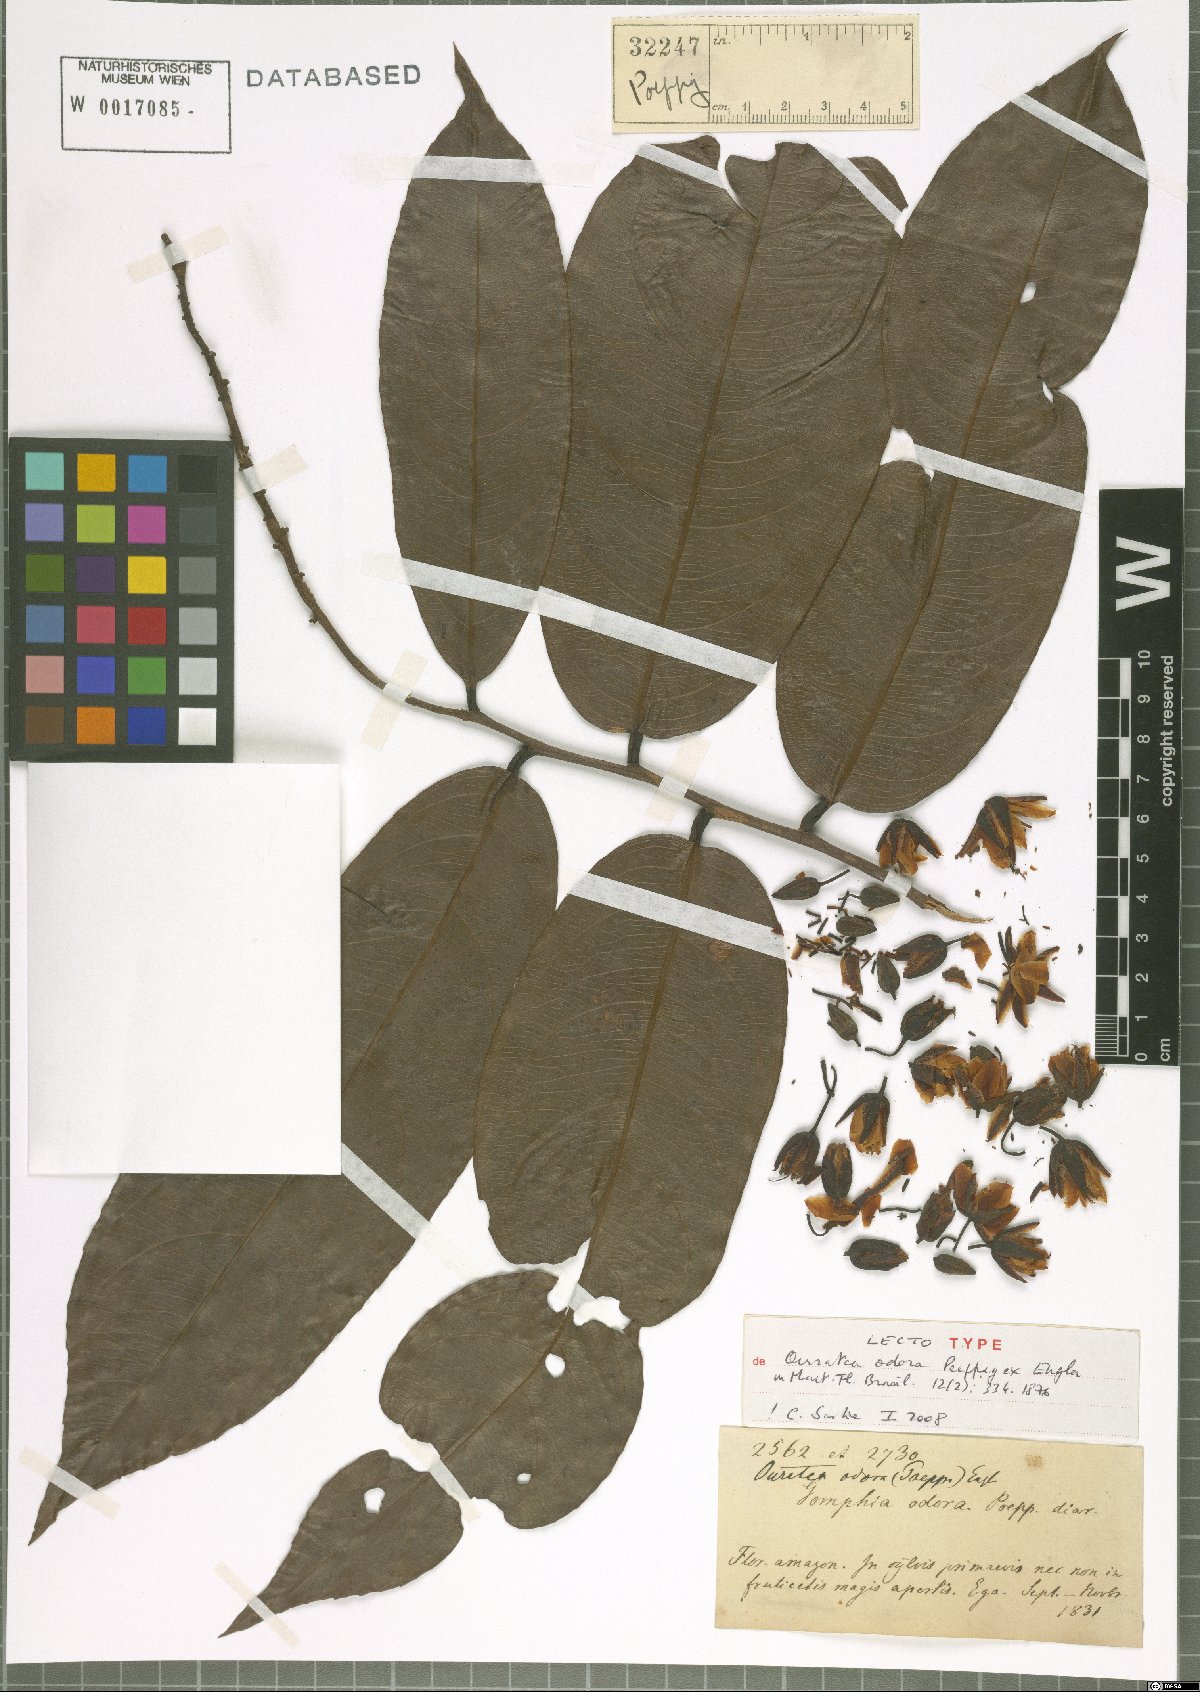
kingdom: Plantae
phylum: Tracheophyta
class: Magnoliopsida
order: Malpighiales
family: Ochnaceae
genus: Ouratea
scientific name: Ouratea superba
